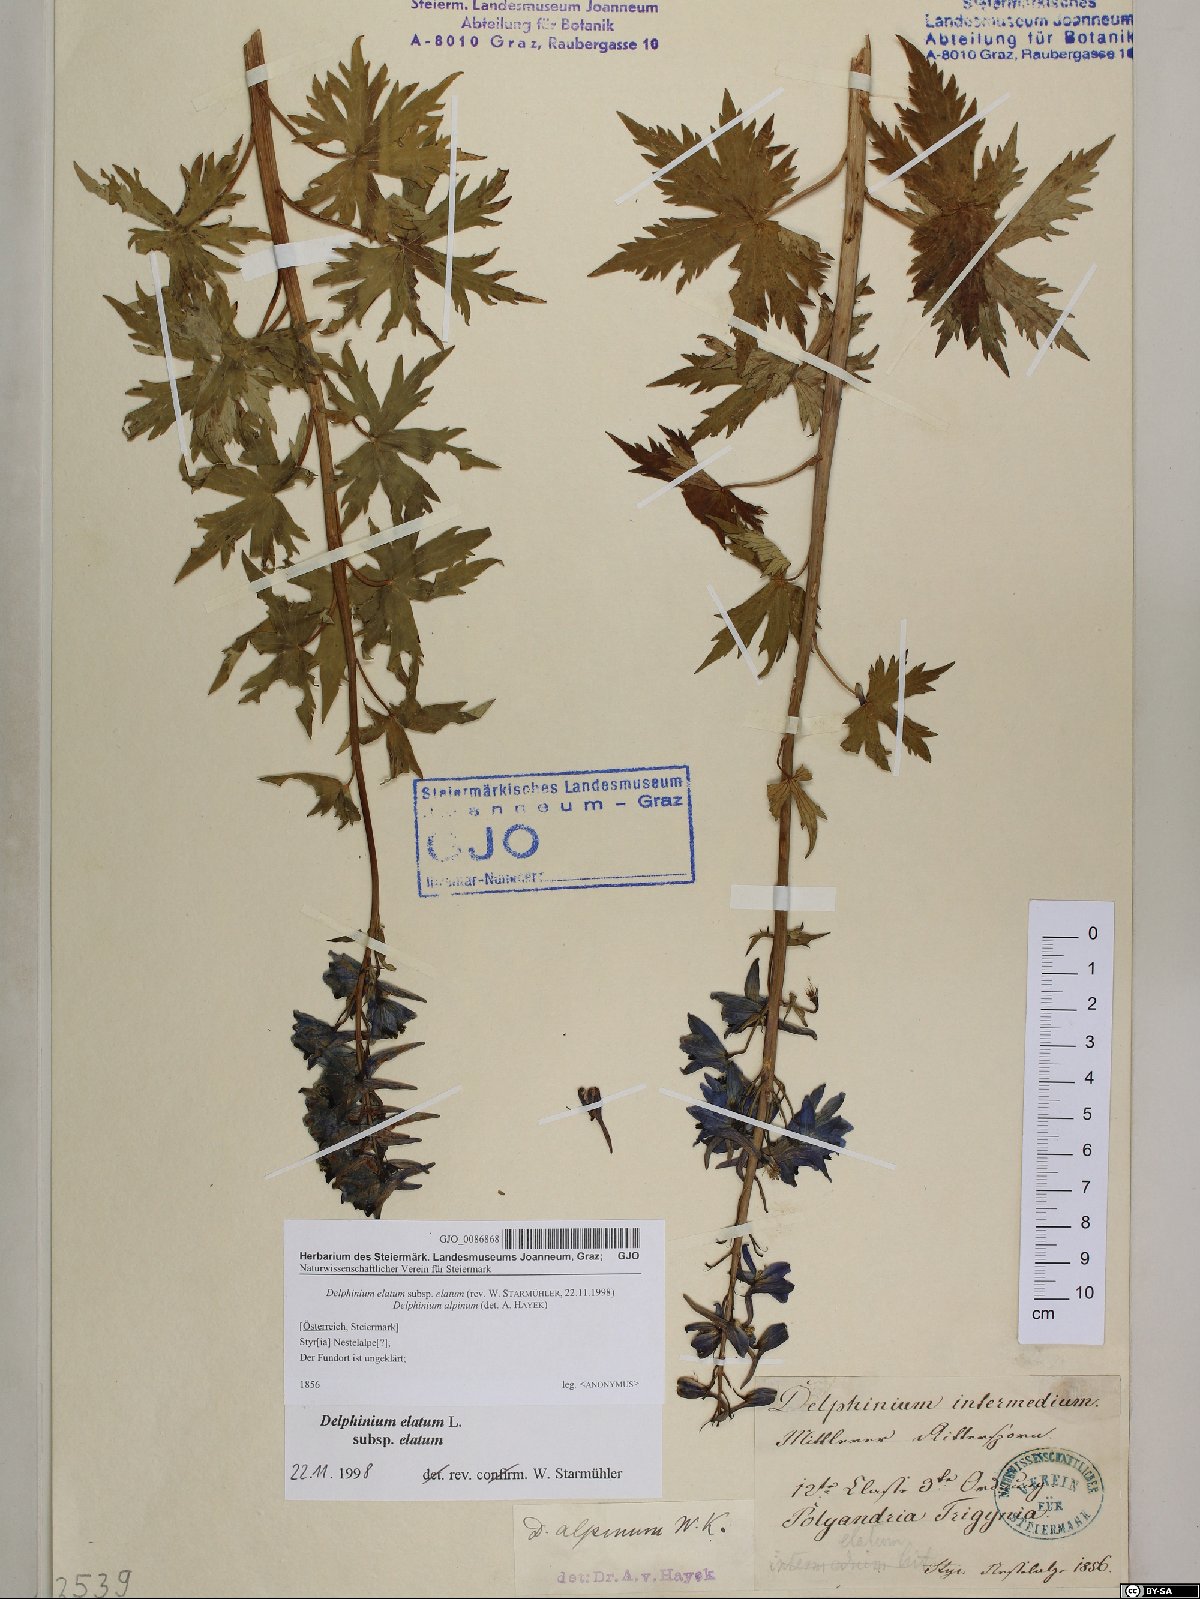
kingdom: Plantae
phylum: Tracheophyta
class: Magnoliopsida
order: Ranunculales
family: Ranunculaceae
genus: Delphinium
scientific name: Delphinium elatum
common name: Candle larkspur
